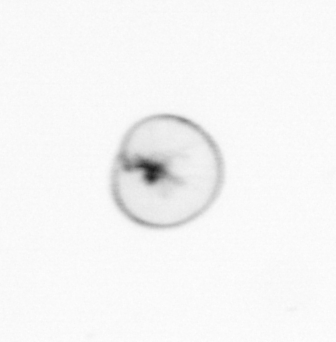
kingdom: Chromista
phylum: Myzozoa
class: Dinophyceae
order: Noctilucales
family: Noctilucaceae
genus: Noctiluca
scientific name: Noctiluca scintillans
